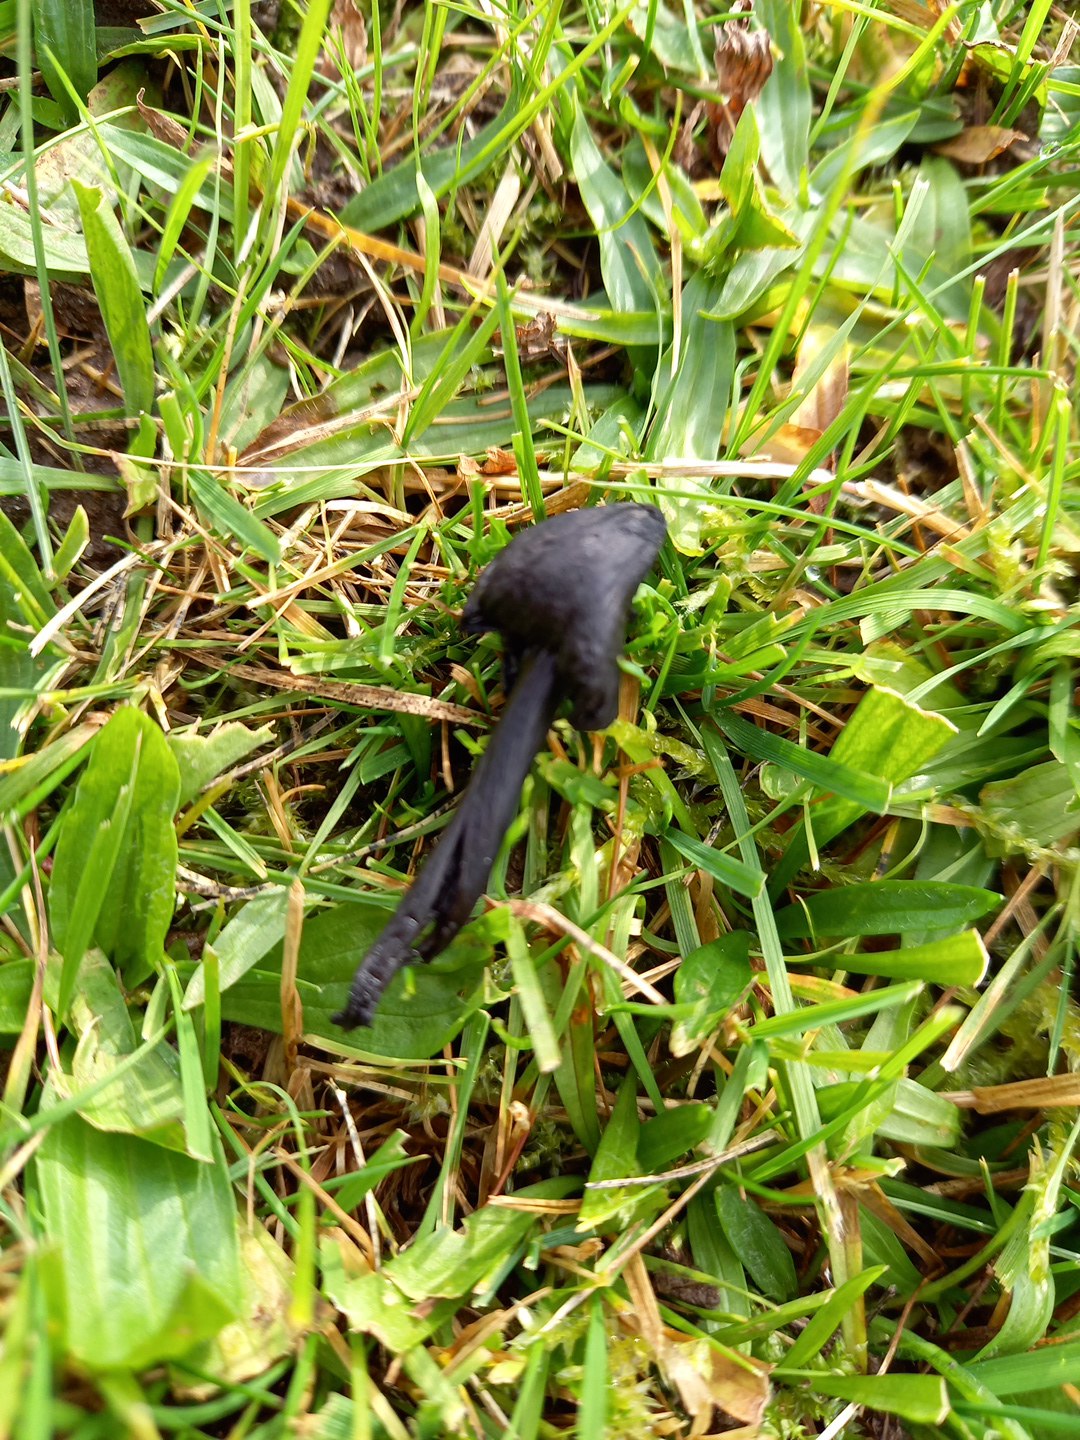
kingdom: Fungi
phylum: Basidiomycota
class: Agaricomycetes
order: Agaricales
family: Hygrophoraceae
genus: Hygrocybe
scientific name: Hygrocybe conica
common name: kegle-vokshat
